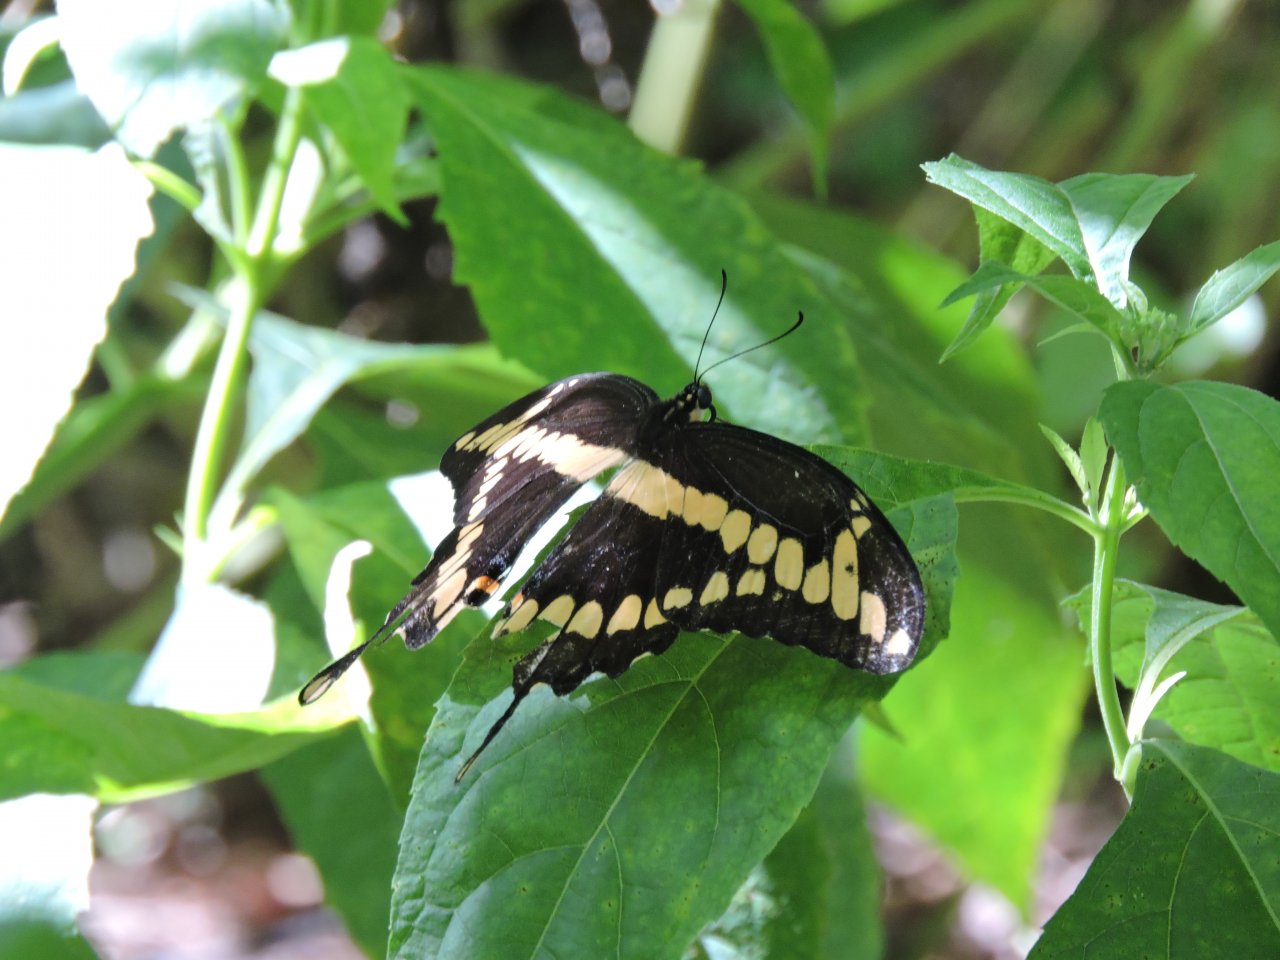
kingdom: Animalia
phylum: Arthropoda
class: Insecta
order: Lepidoptera
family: Papilionidae
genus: Papilio
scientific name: Papilio cresphontes
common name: Eastern Giant Swallowtail
